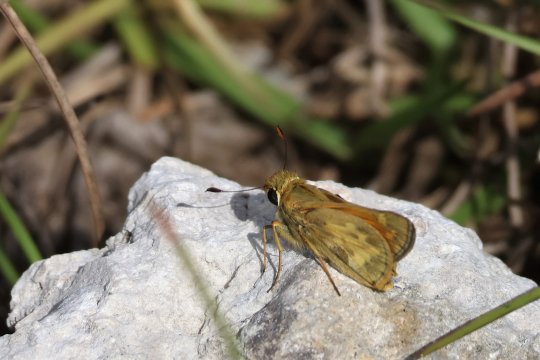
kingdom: Animalia
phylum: Arthropoda
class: Insecta
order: Lepidoptera
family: Hesperiidae
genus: Atalopedes
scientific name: Atalopedes campestris
